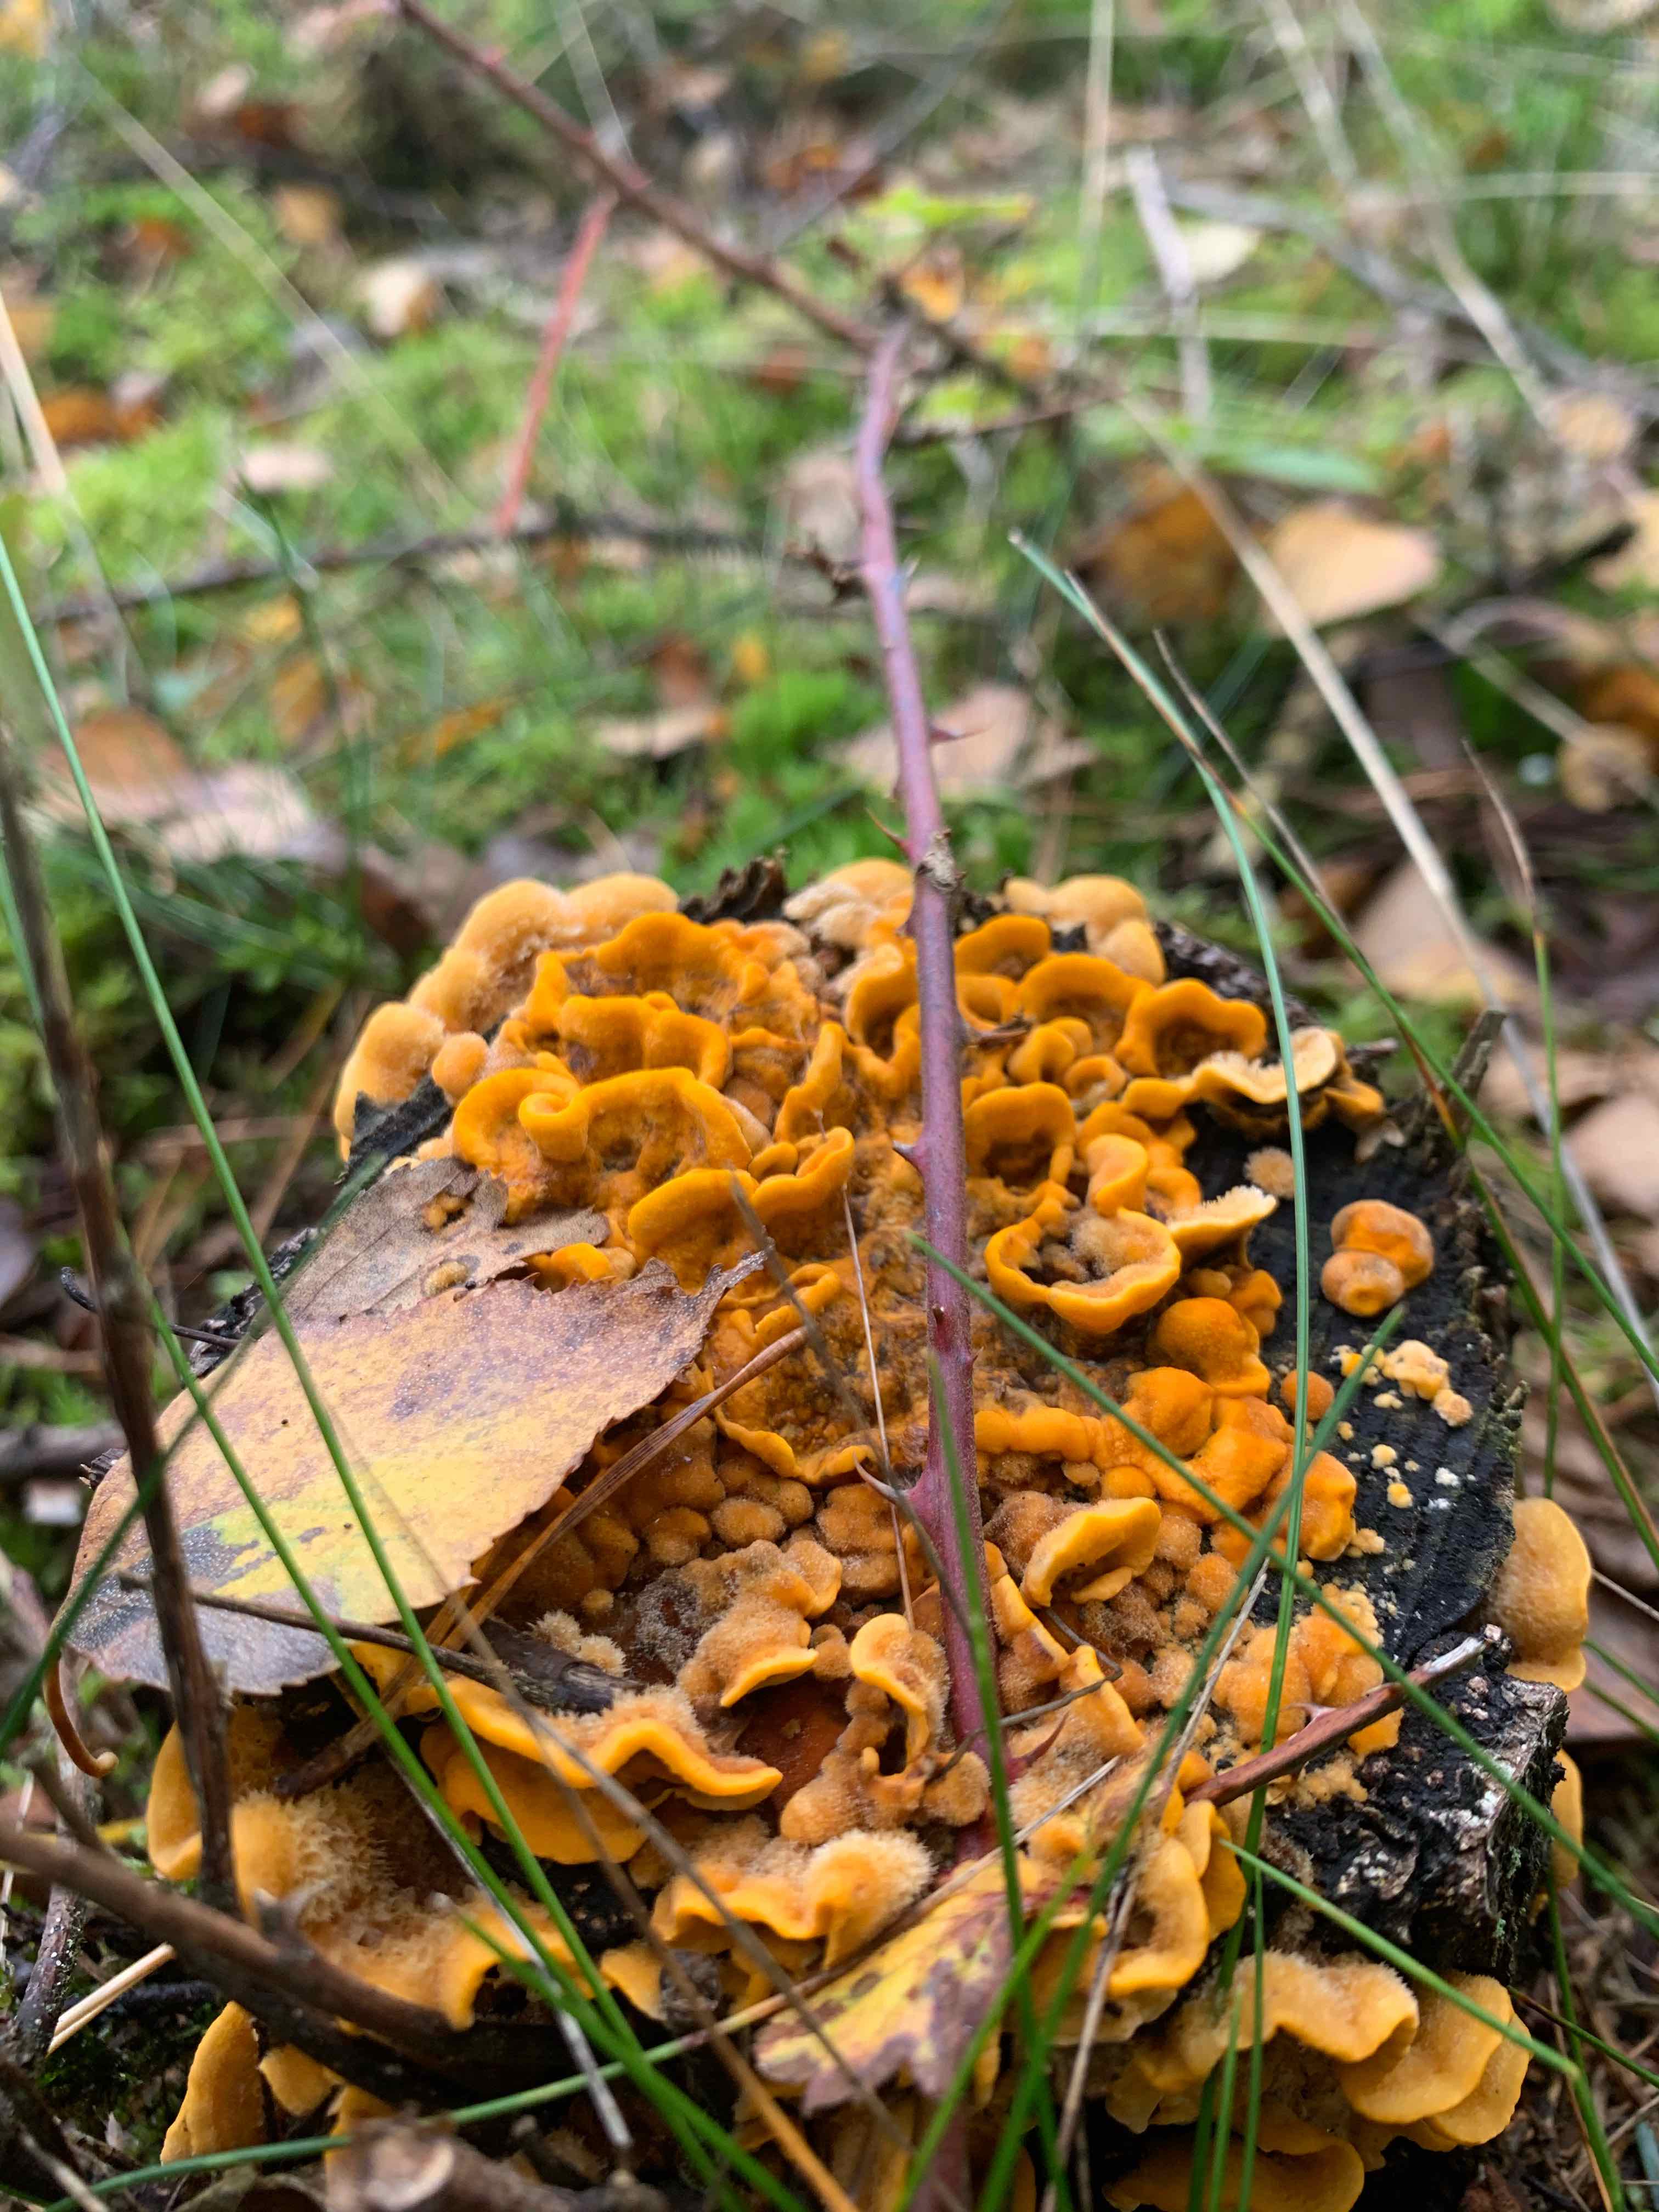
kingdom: Fungi
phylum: Basidiomycota
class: Agaricomycetes
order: Russulales
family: Stereaceae
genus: Stereum
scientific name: Stereum hirsutum
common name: håret lædersvamp
